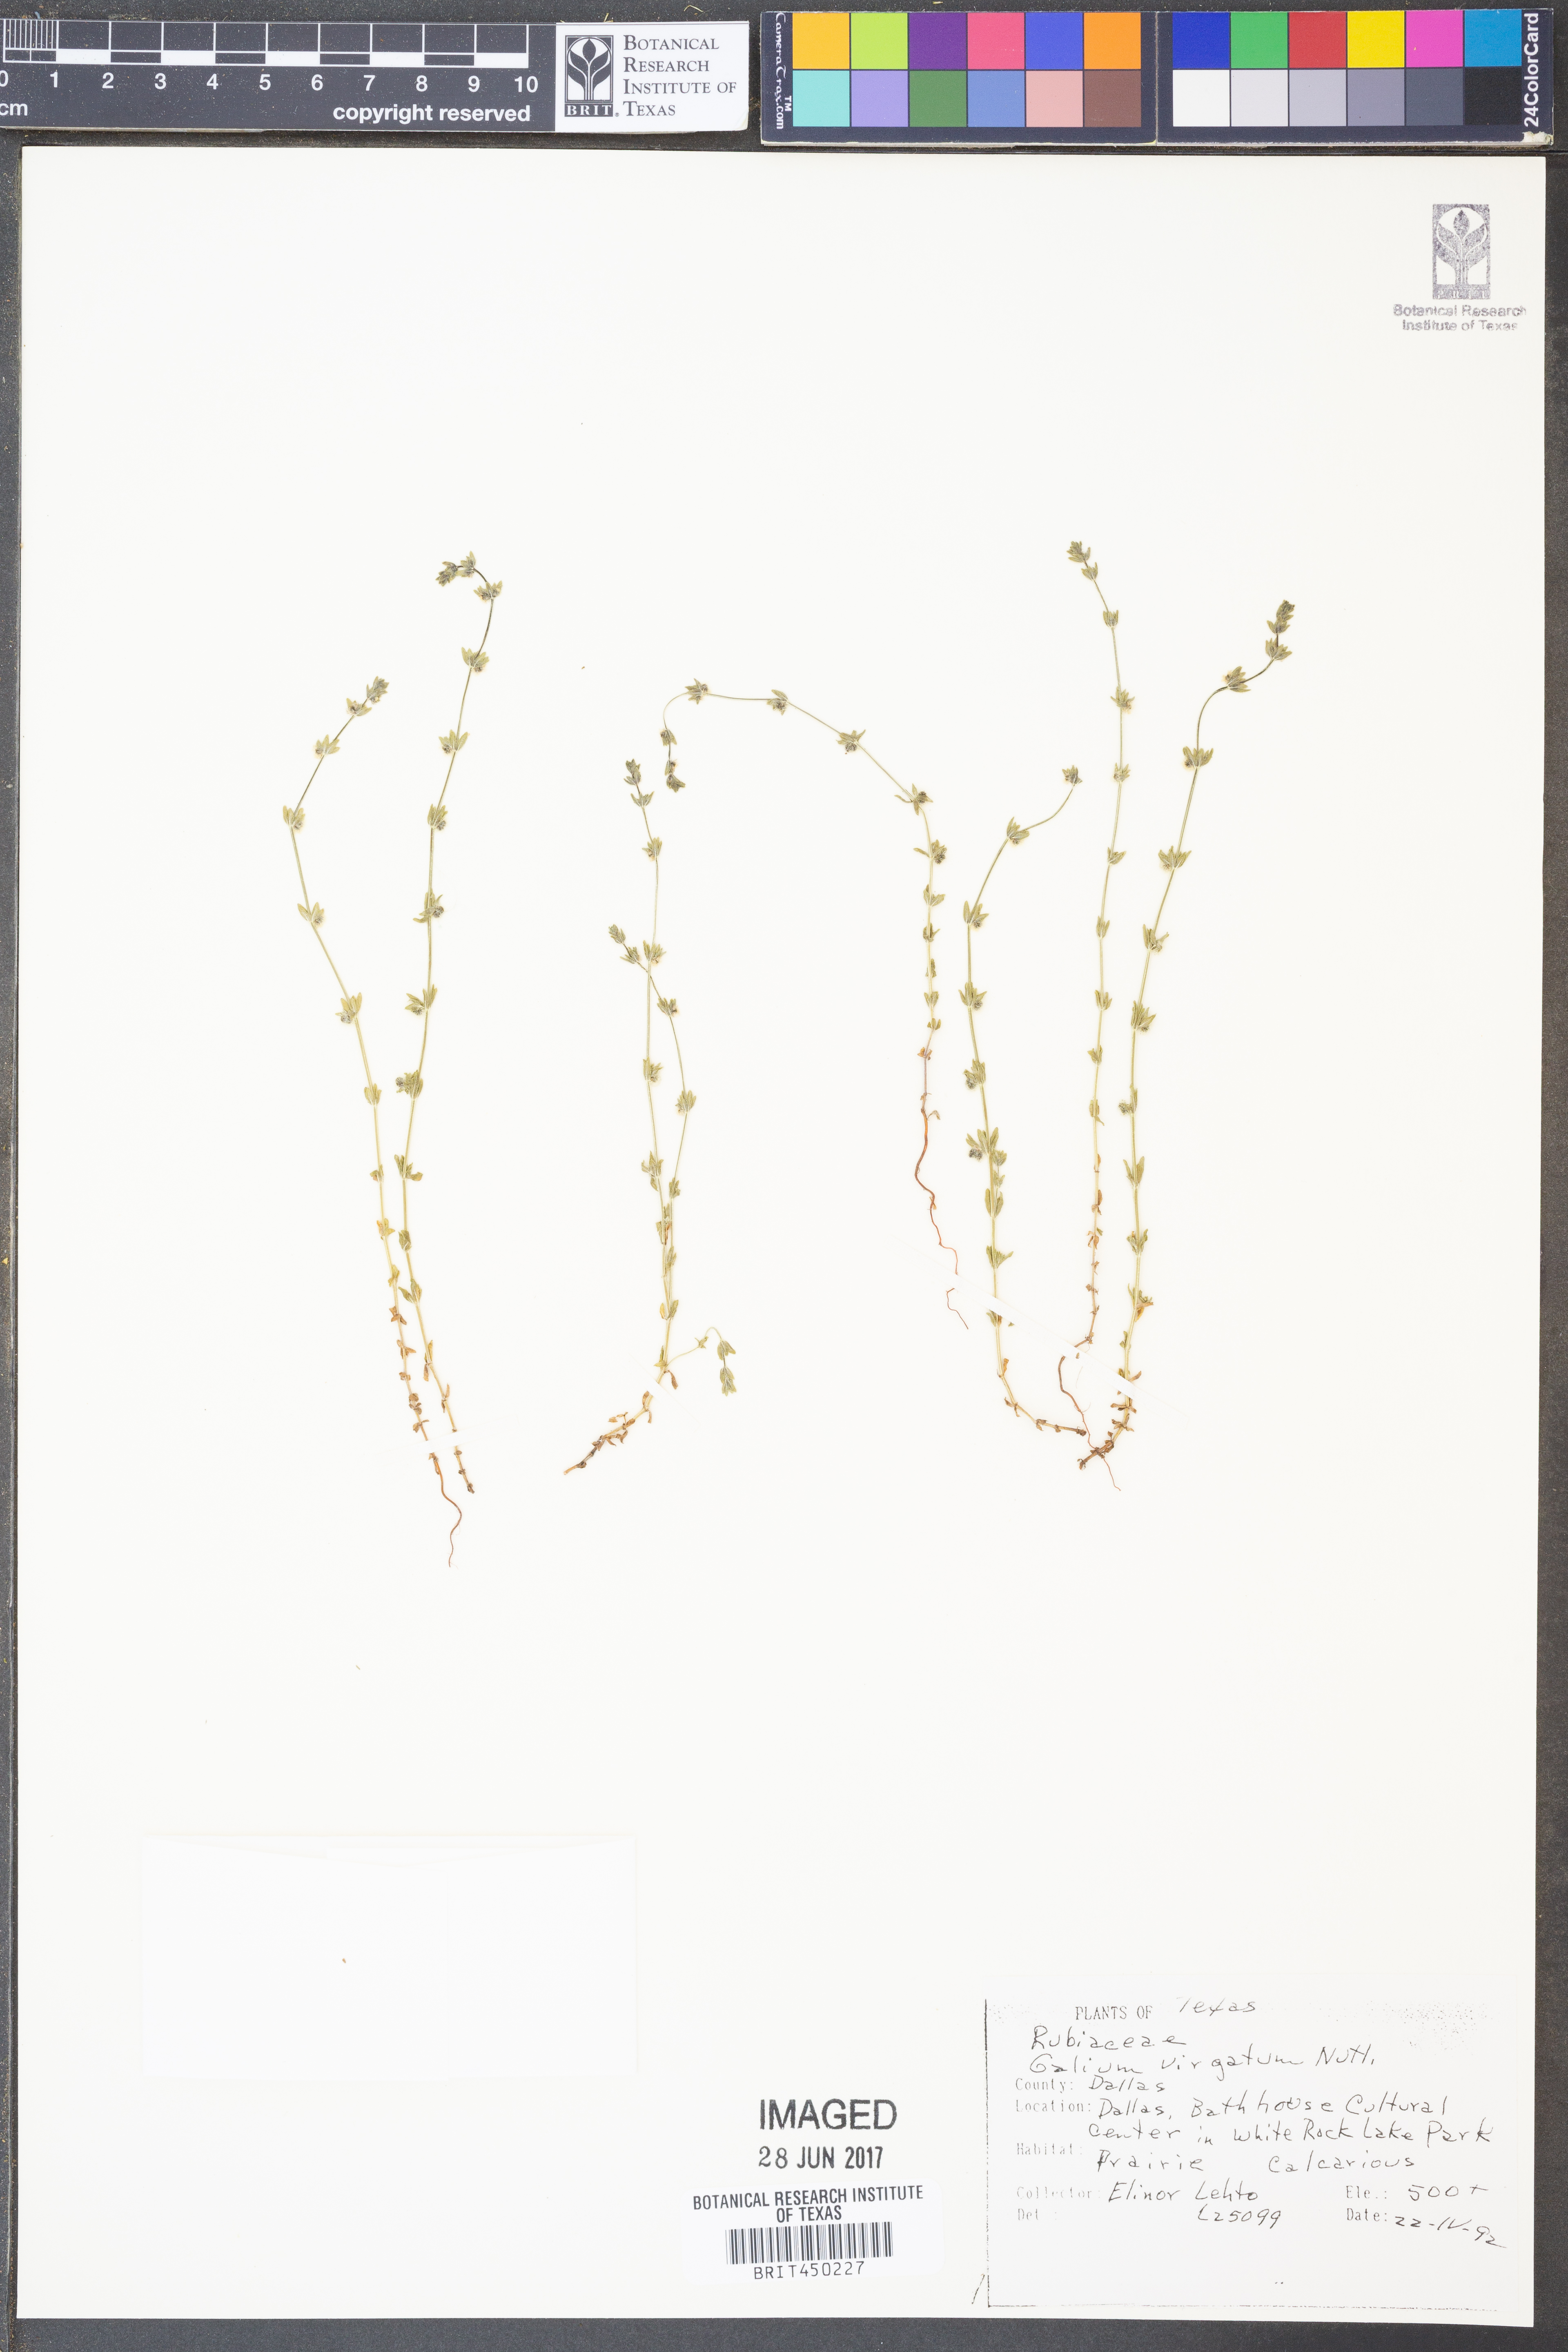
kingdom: Plantae
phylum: Tracheophyta
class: Magnoliopsida
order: Gentianales
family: Rubiaceae
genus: Galium
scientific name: Galium virgatum
